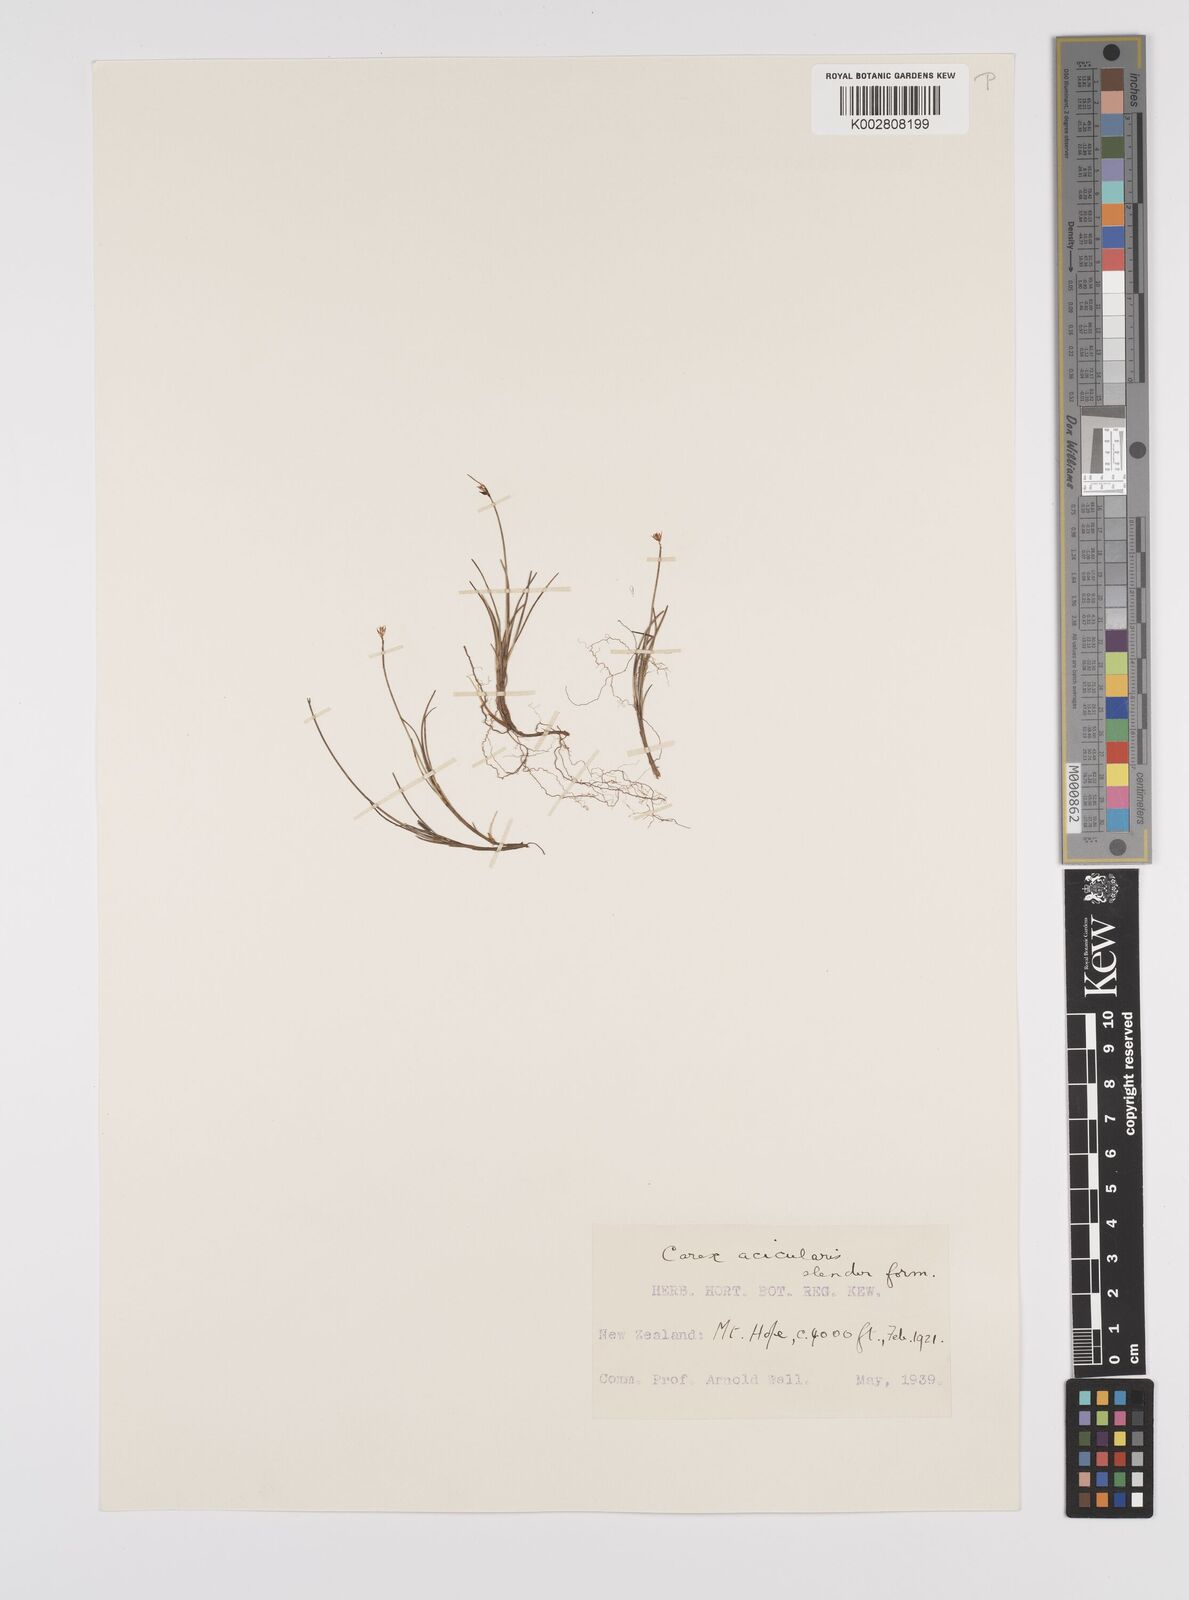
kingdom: Plantae
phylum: Tracheophyta
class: Liliopsida
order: Poales
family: Cyperaceae
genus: Carex
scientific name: Carex acicularis
